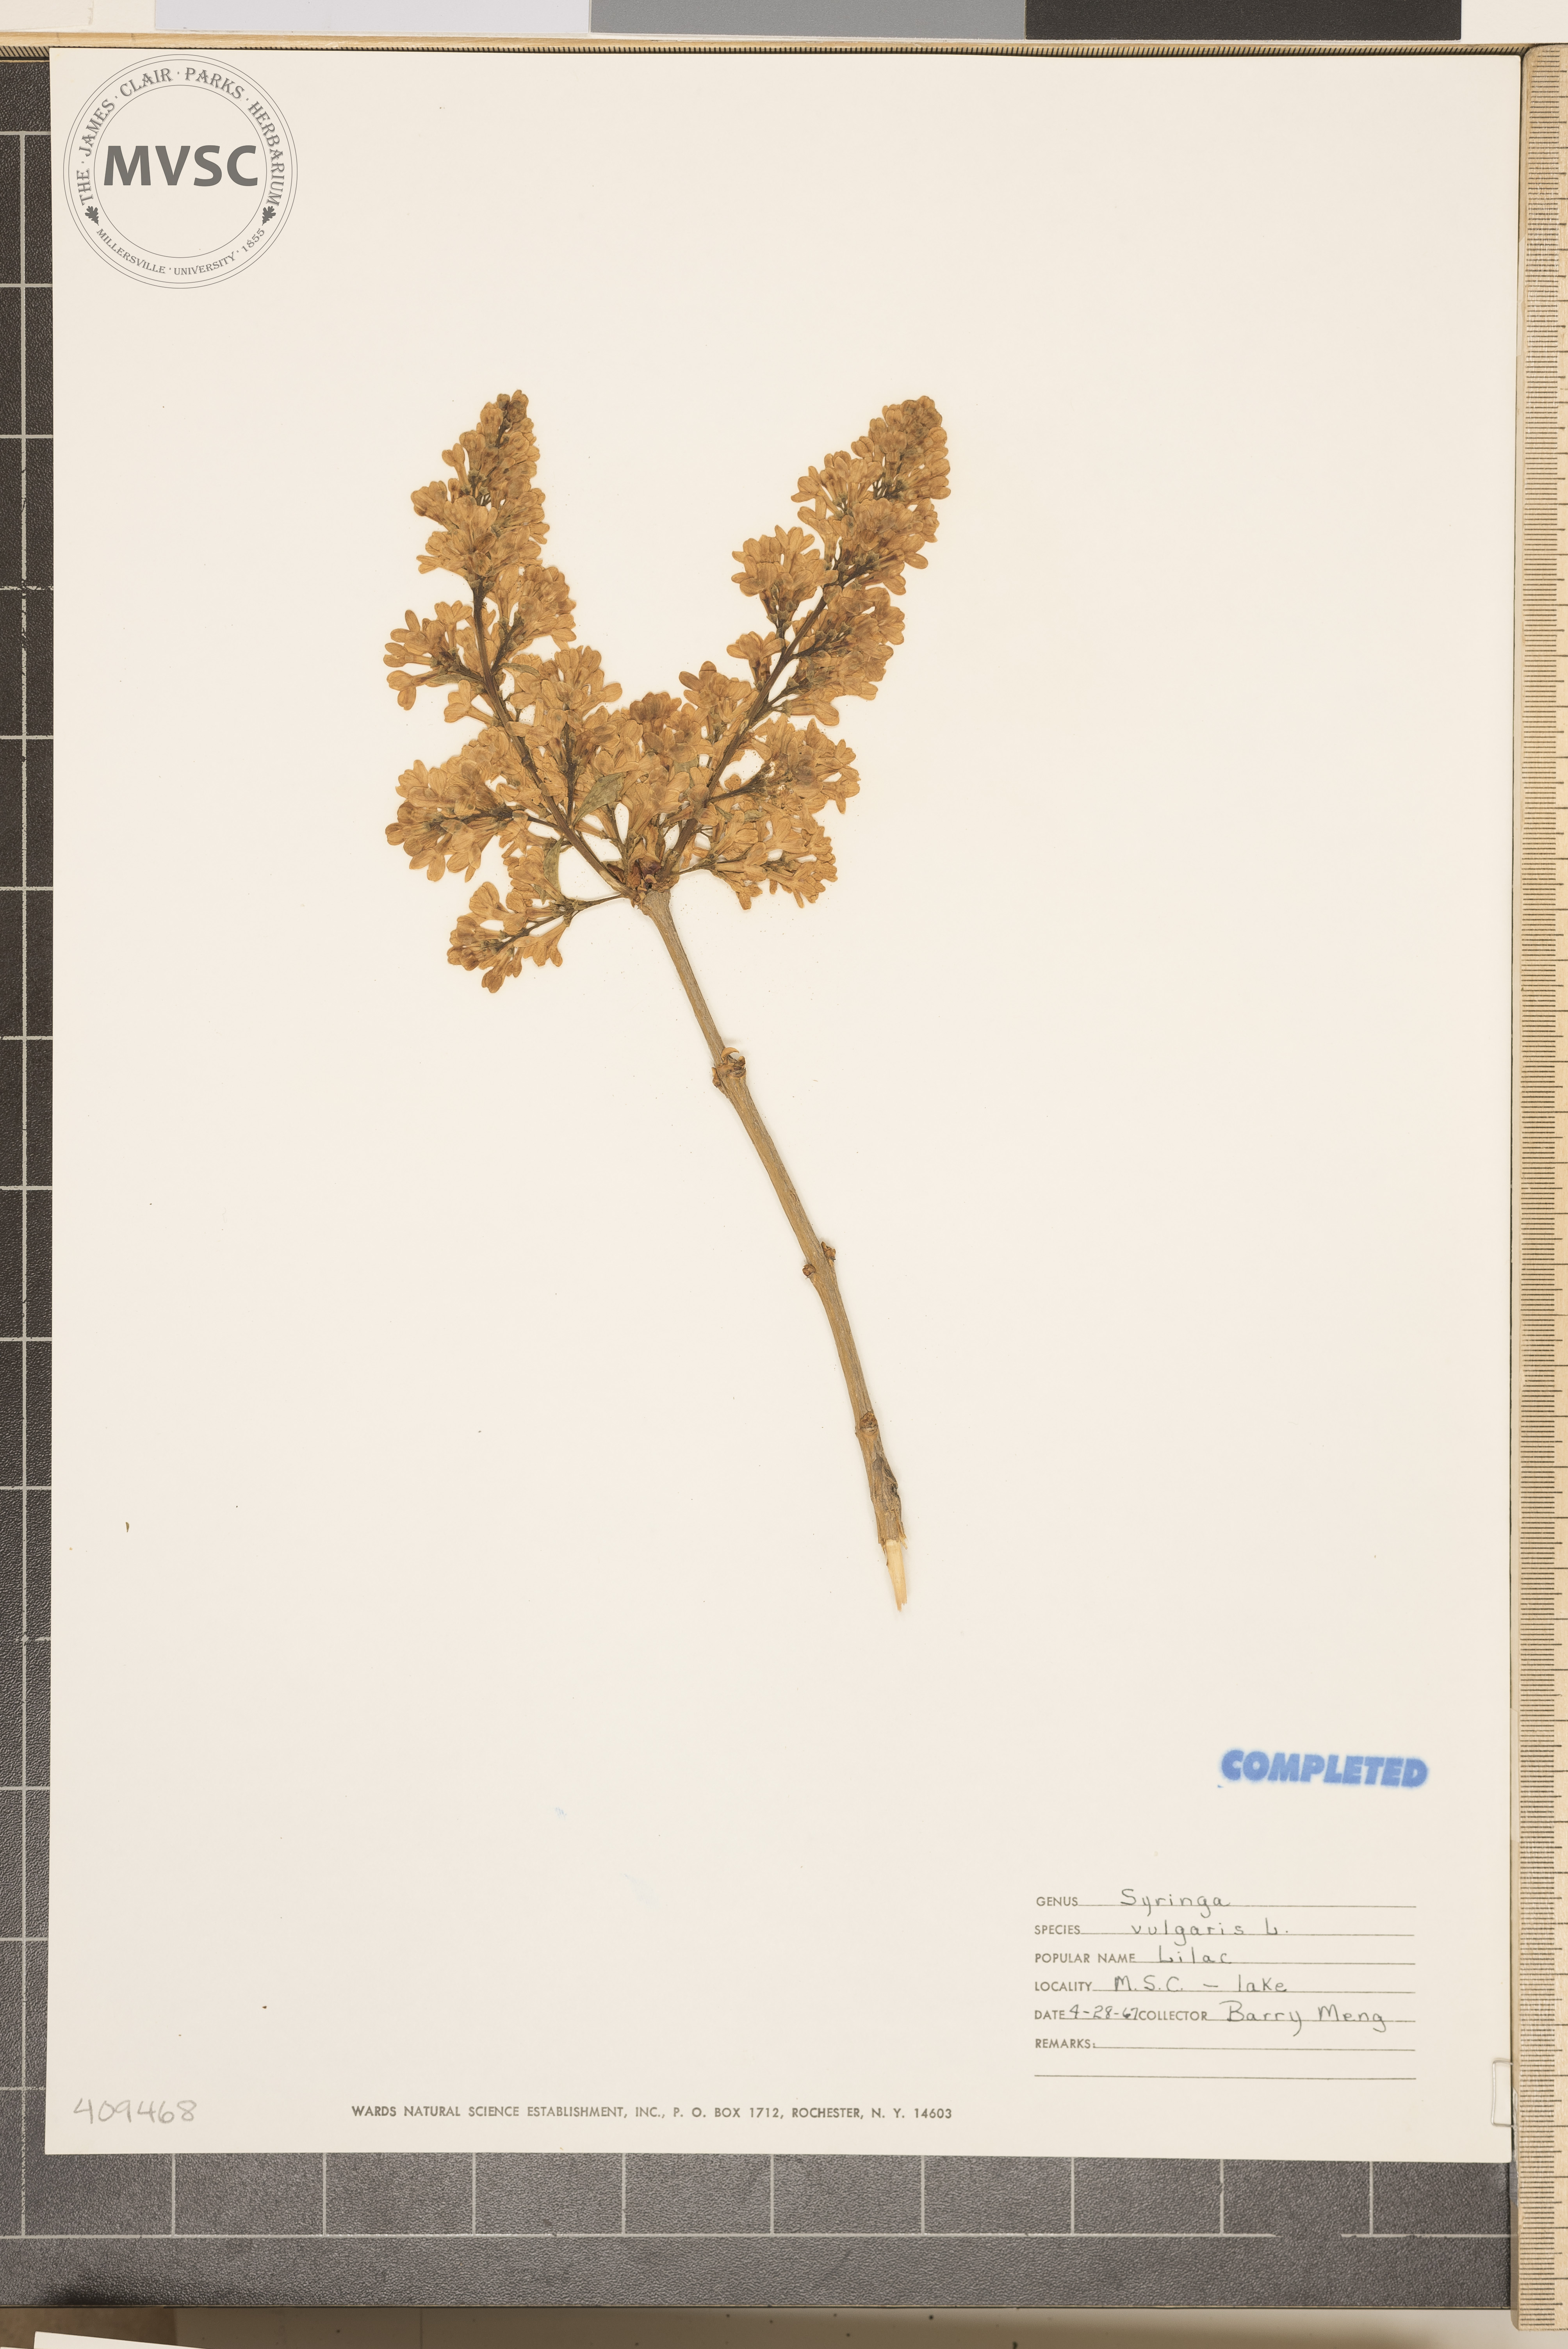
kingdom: Plantae
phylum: Tracheophyta
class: Magnoliopsida
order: Lamiales
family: Oleaceae
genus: Syringa
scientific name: Syringa vulgaris
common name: Common lilac
